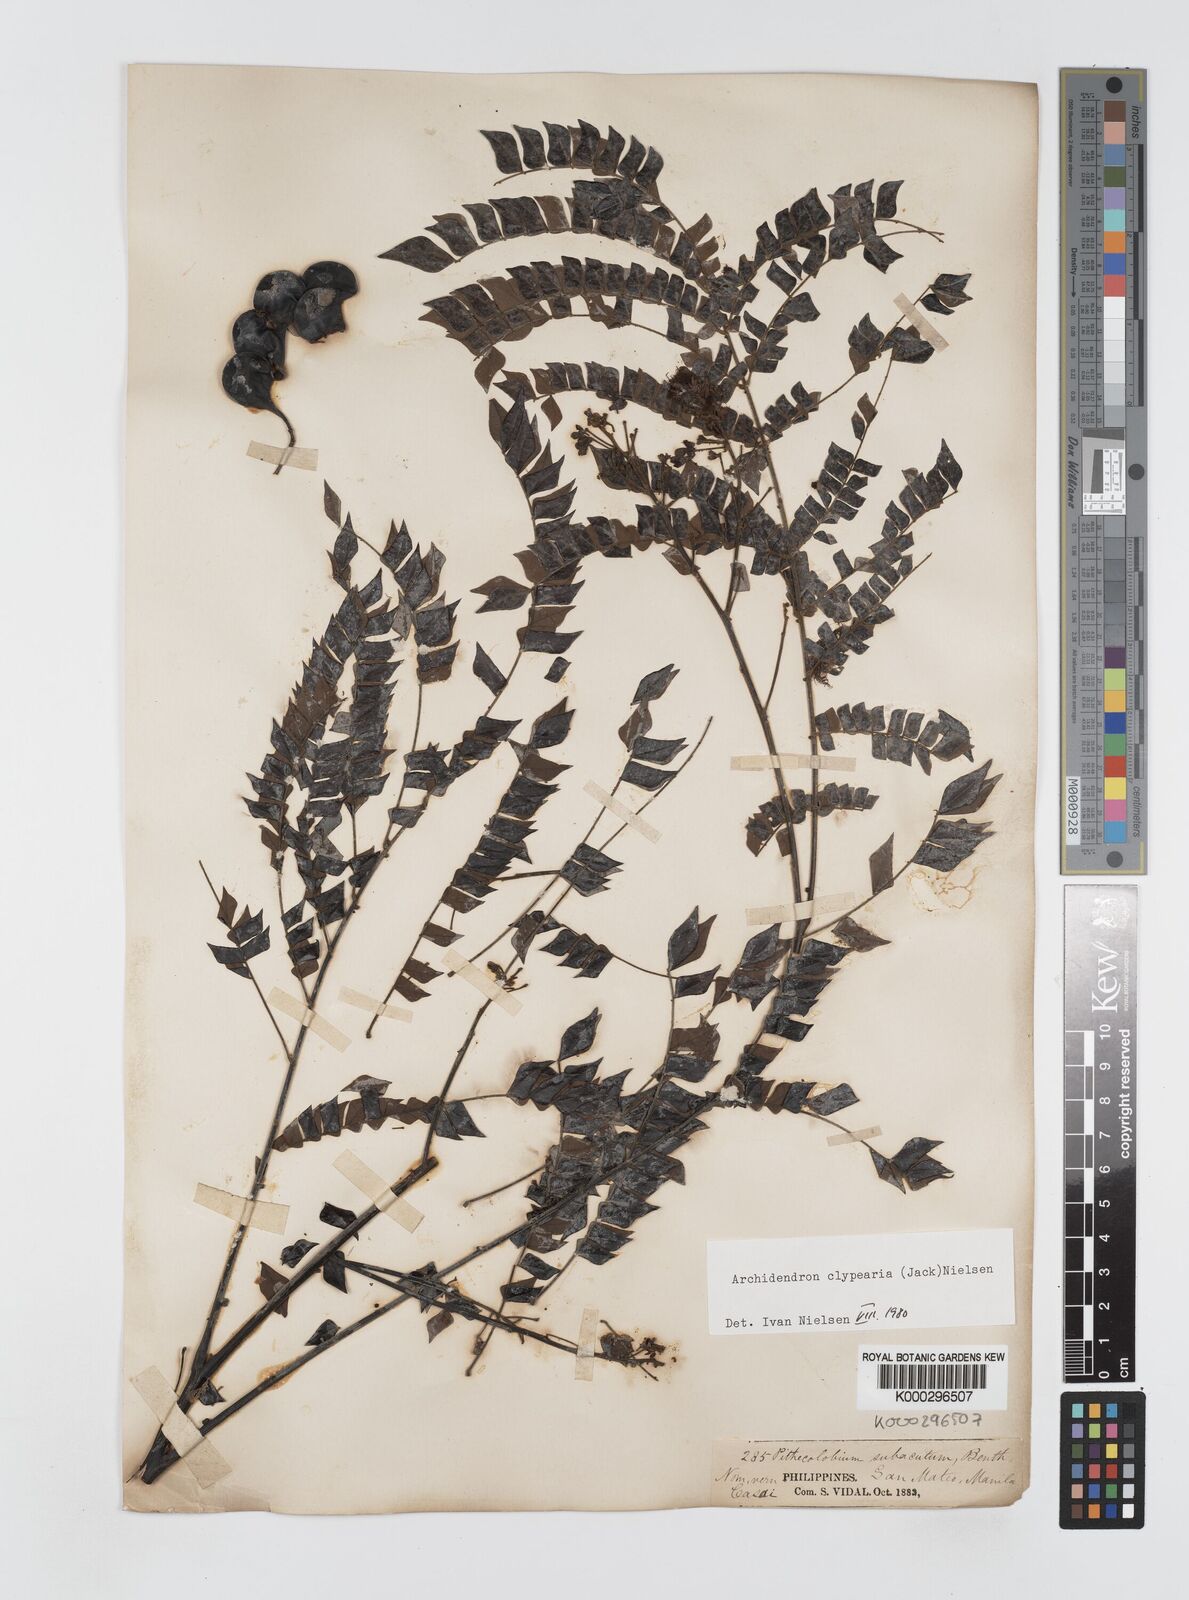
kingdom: Plantae
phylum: Tracheophyta
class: Magnoliopsida
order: Fabales
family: Fabaceae
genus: Archidendron
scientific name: Archidendron clypearia
